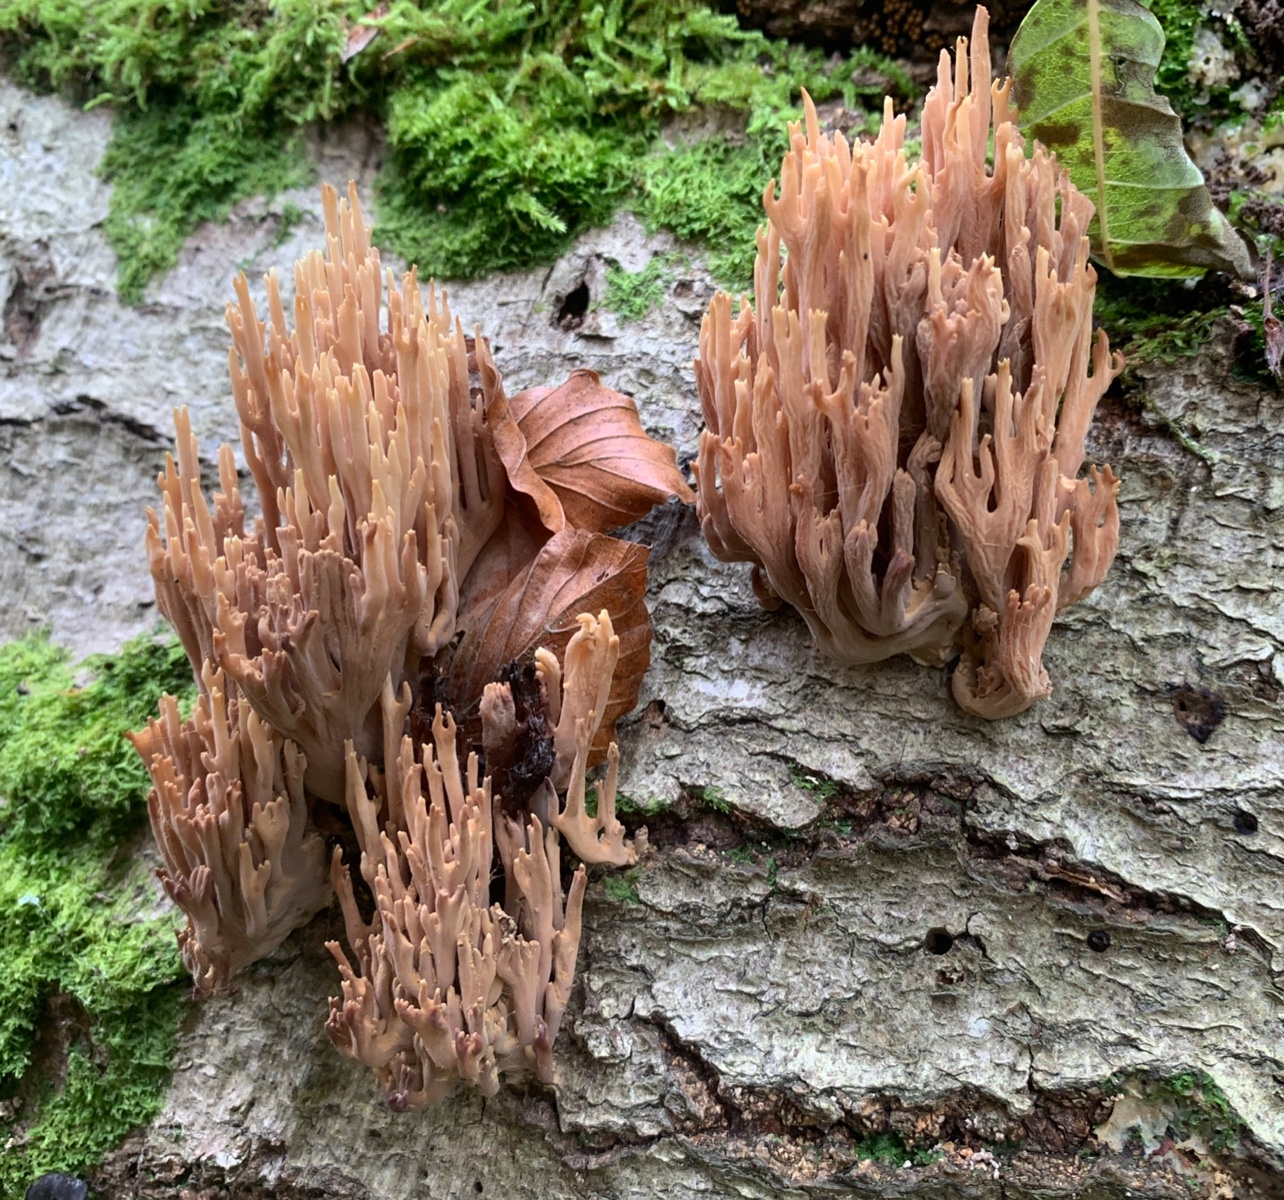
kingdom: Fungi
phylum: Basidiomycota
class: Agaricomycetes
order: Gomphales
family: Gomphaceae
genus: Ramaria
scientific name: Ramaria stricta
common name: rank koralsvamp
